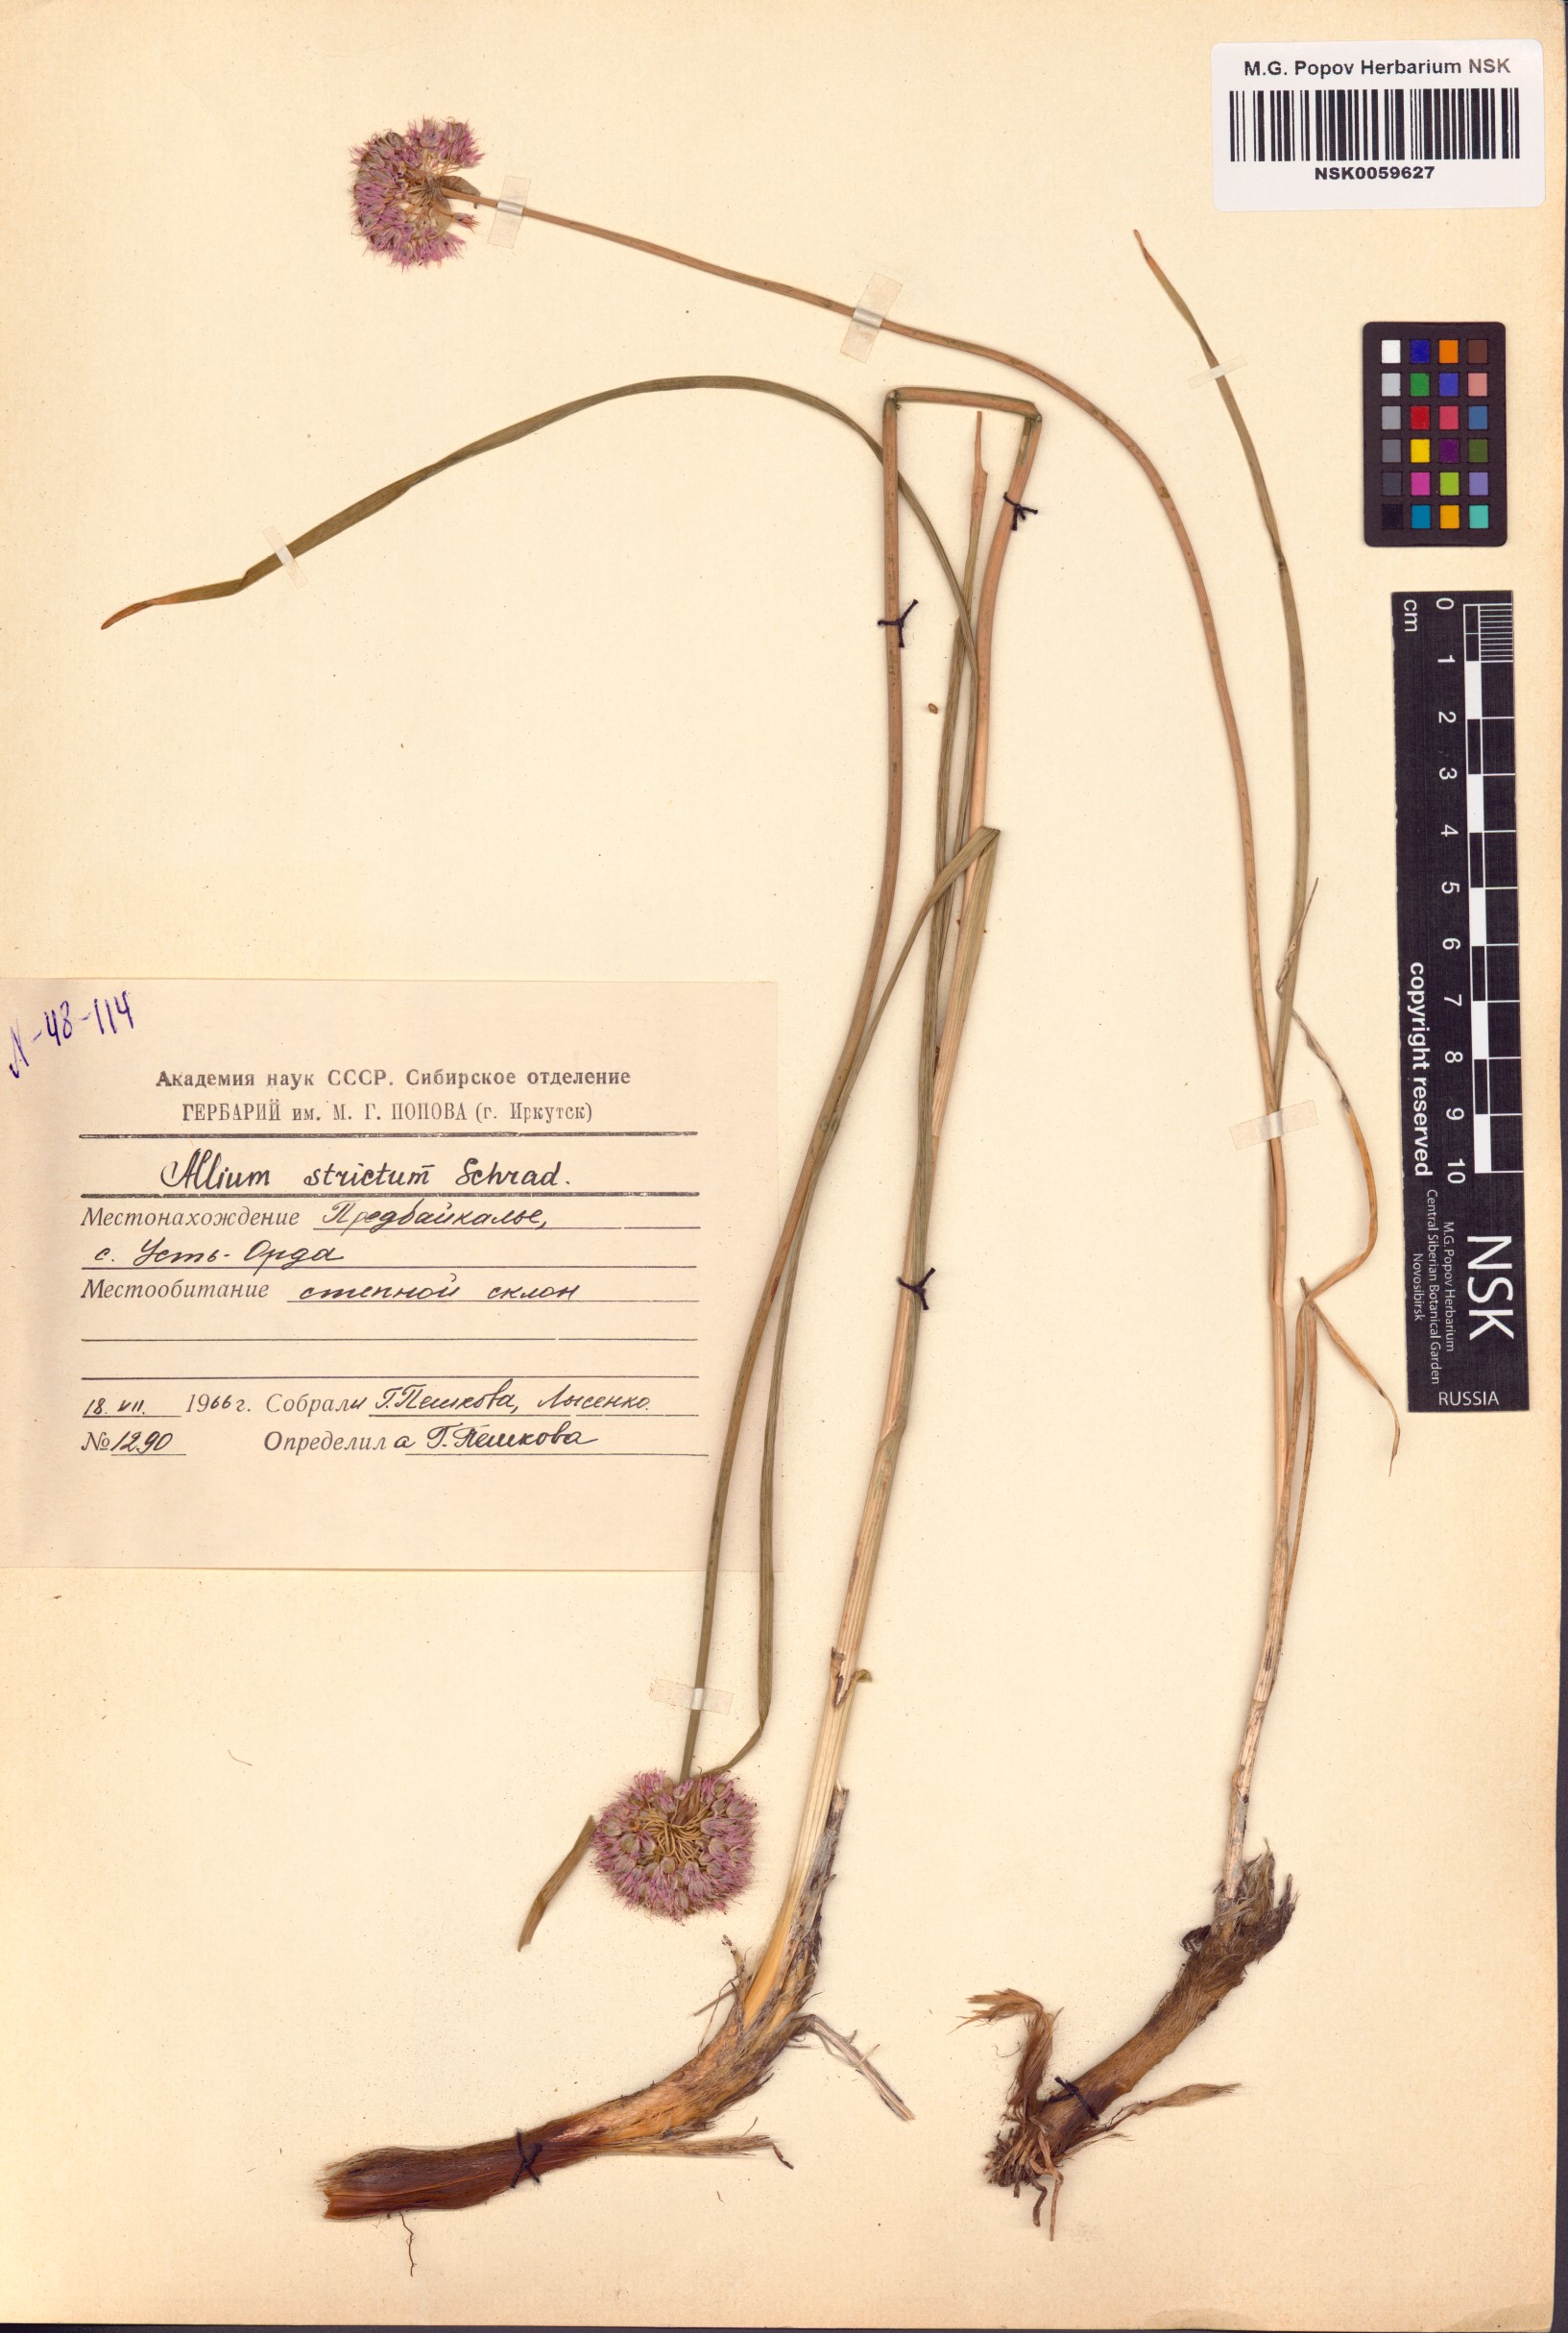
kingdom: Plantae
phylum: Tracheophyta
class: Liliopsida
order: Asparagales
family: Amaryllidaceae
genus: Allium
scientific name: Allium strictum
